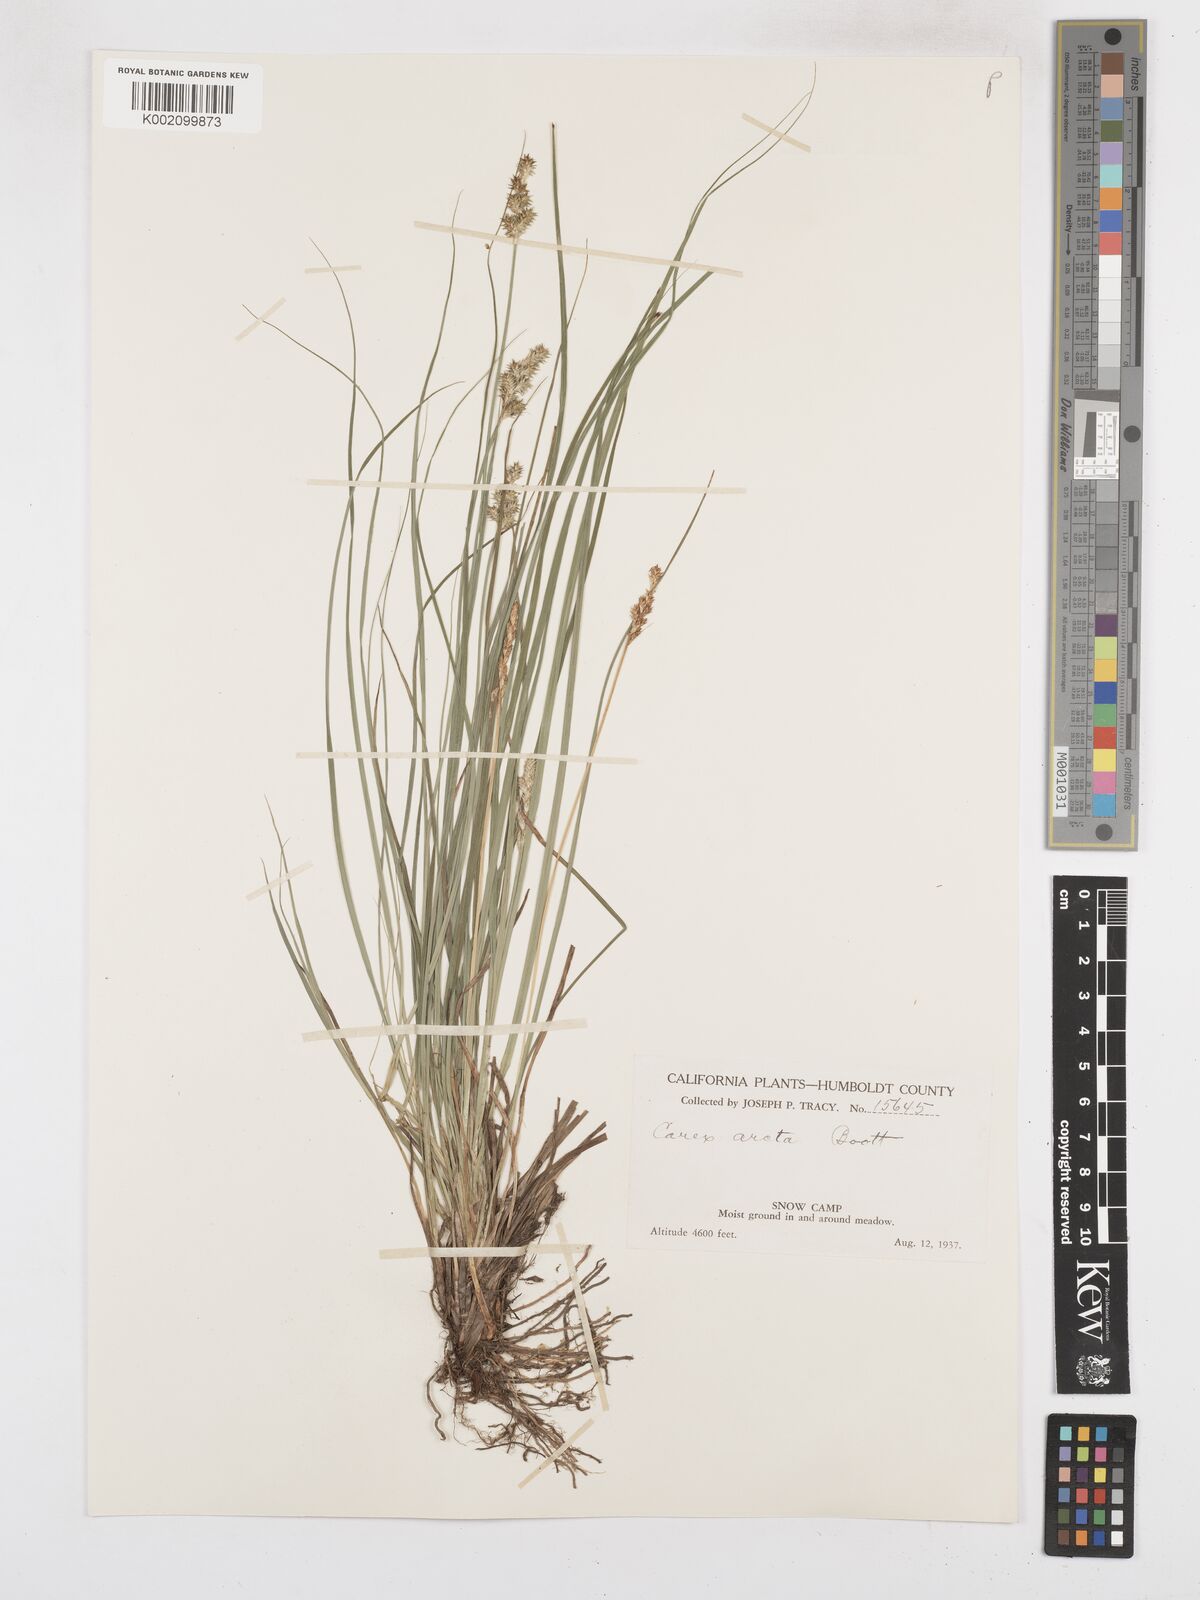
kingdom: Plantae
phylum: Tracheophyta
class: Liliopsida
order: Poales
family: Cyperaceae
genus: Carex
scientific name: Carex arcta
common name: Bear sedge
